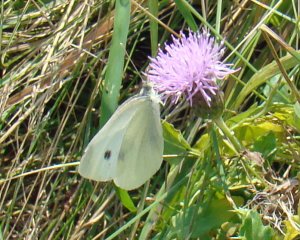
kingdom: Animalia
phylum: Arthropoda
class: Insecta
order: Lepidoptera
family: Pieridae
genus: Pieris
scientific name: Pieris rapae
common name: Cabbage White
